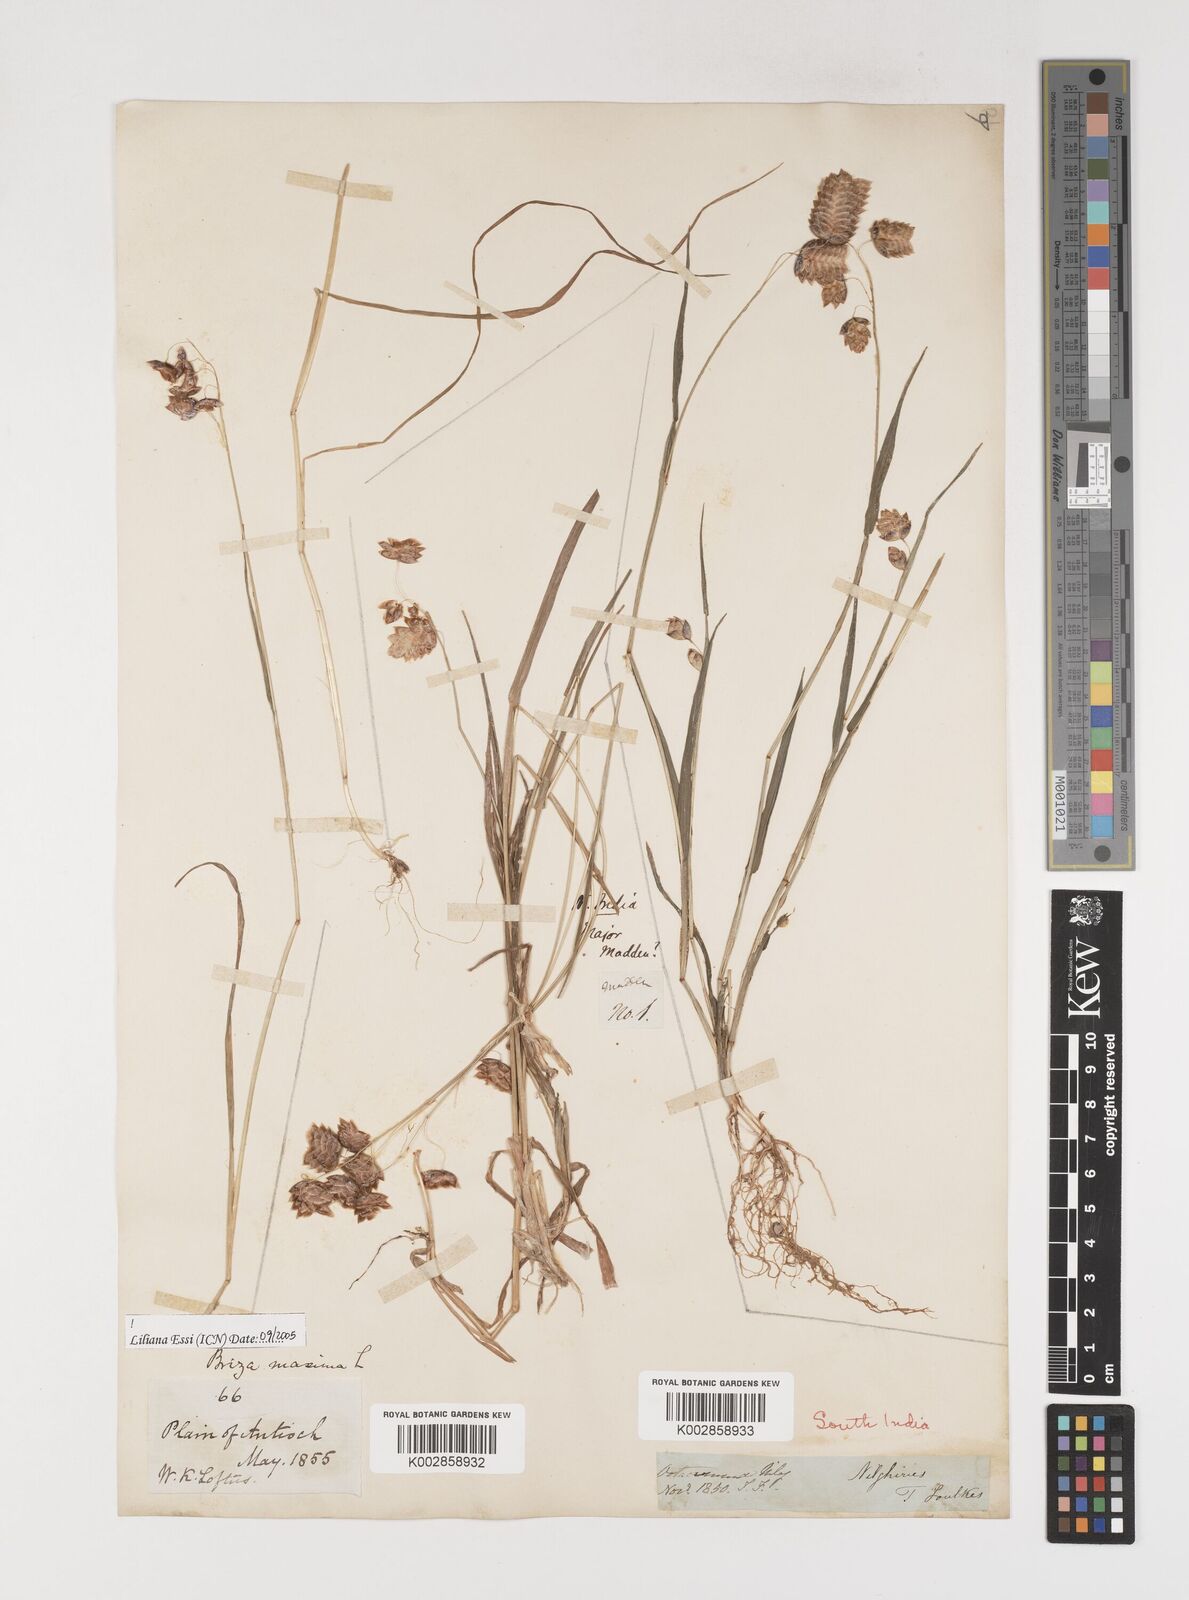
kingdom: Plantae
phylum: Tracheophyta
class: Liliopsida
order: Poales
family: Poaceae
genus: Briza
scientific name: Briza maxima
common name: Big quakinggrass
